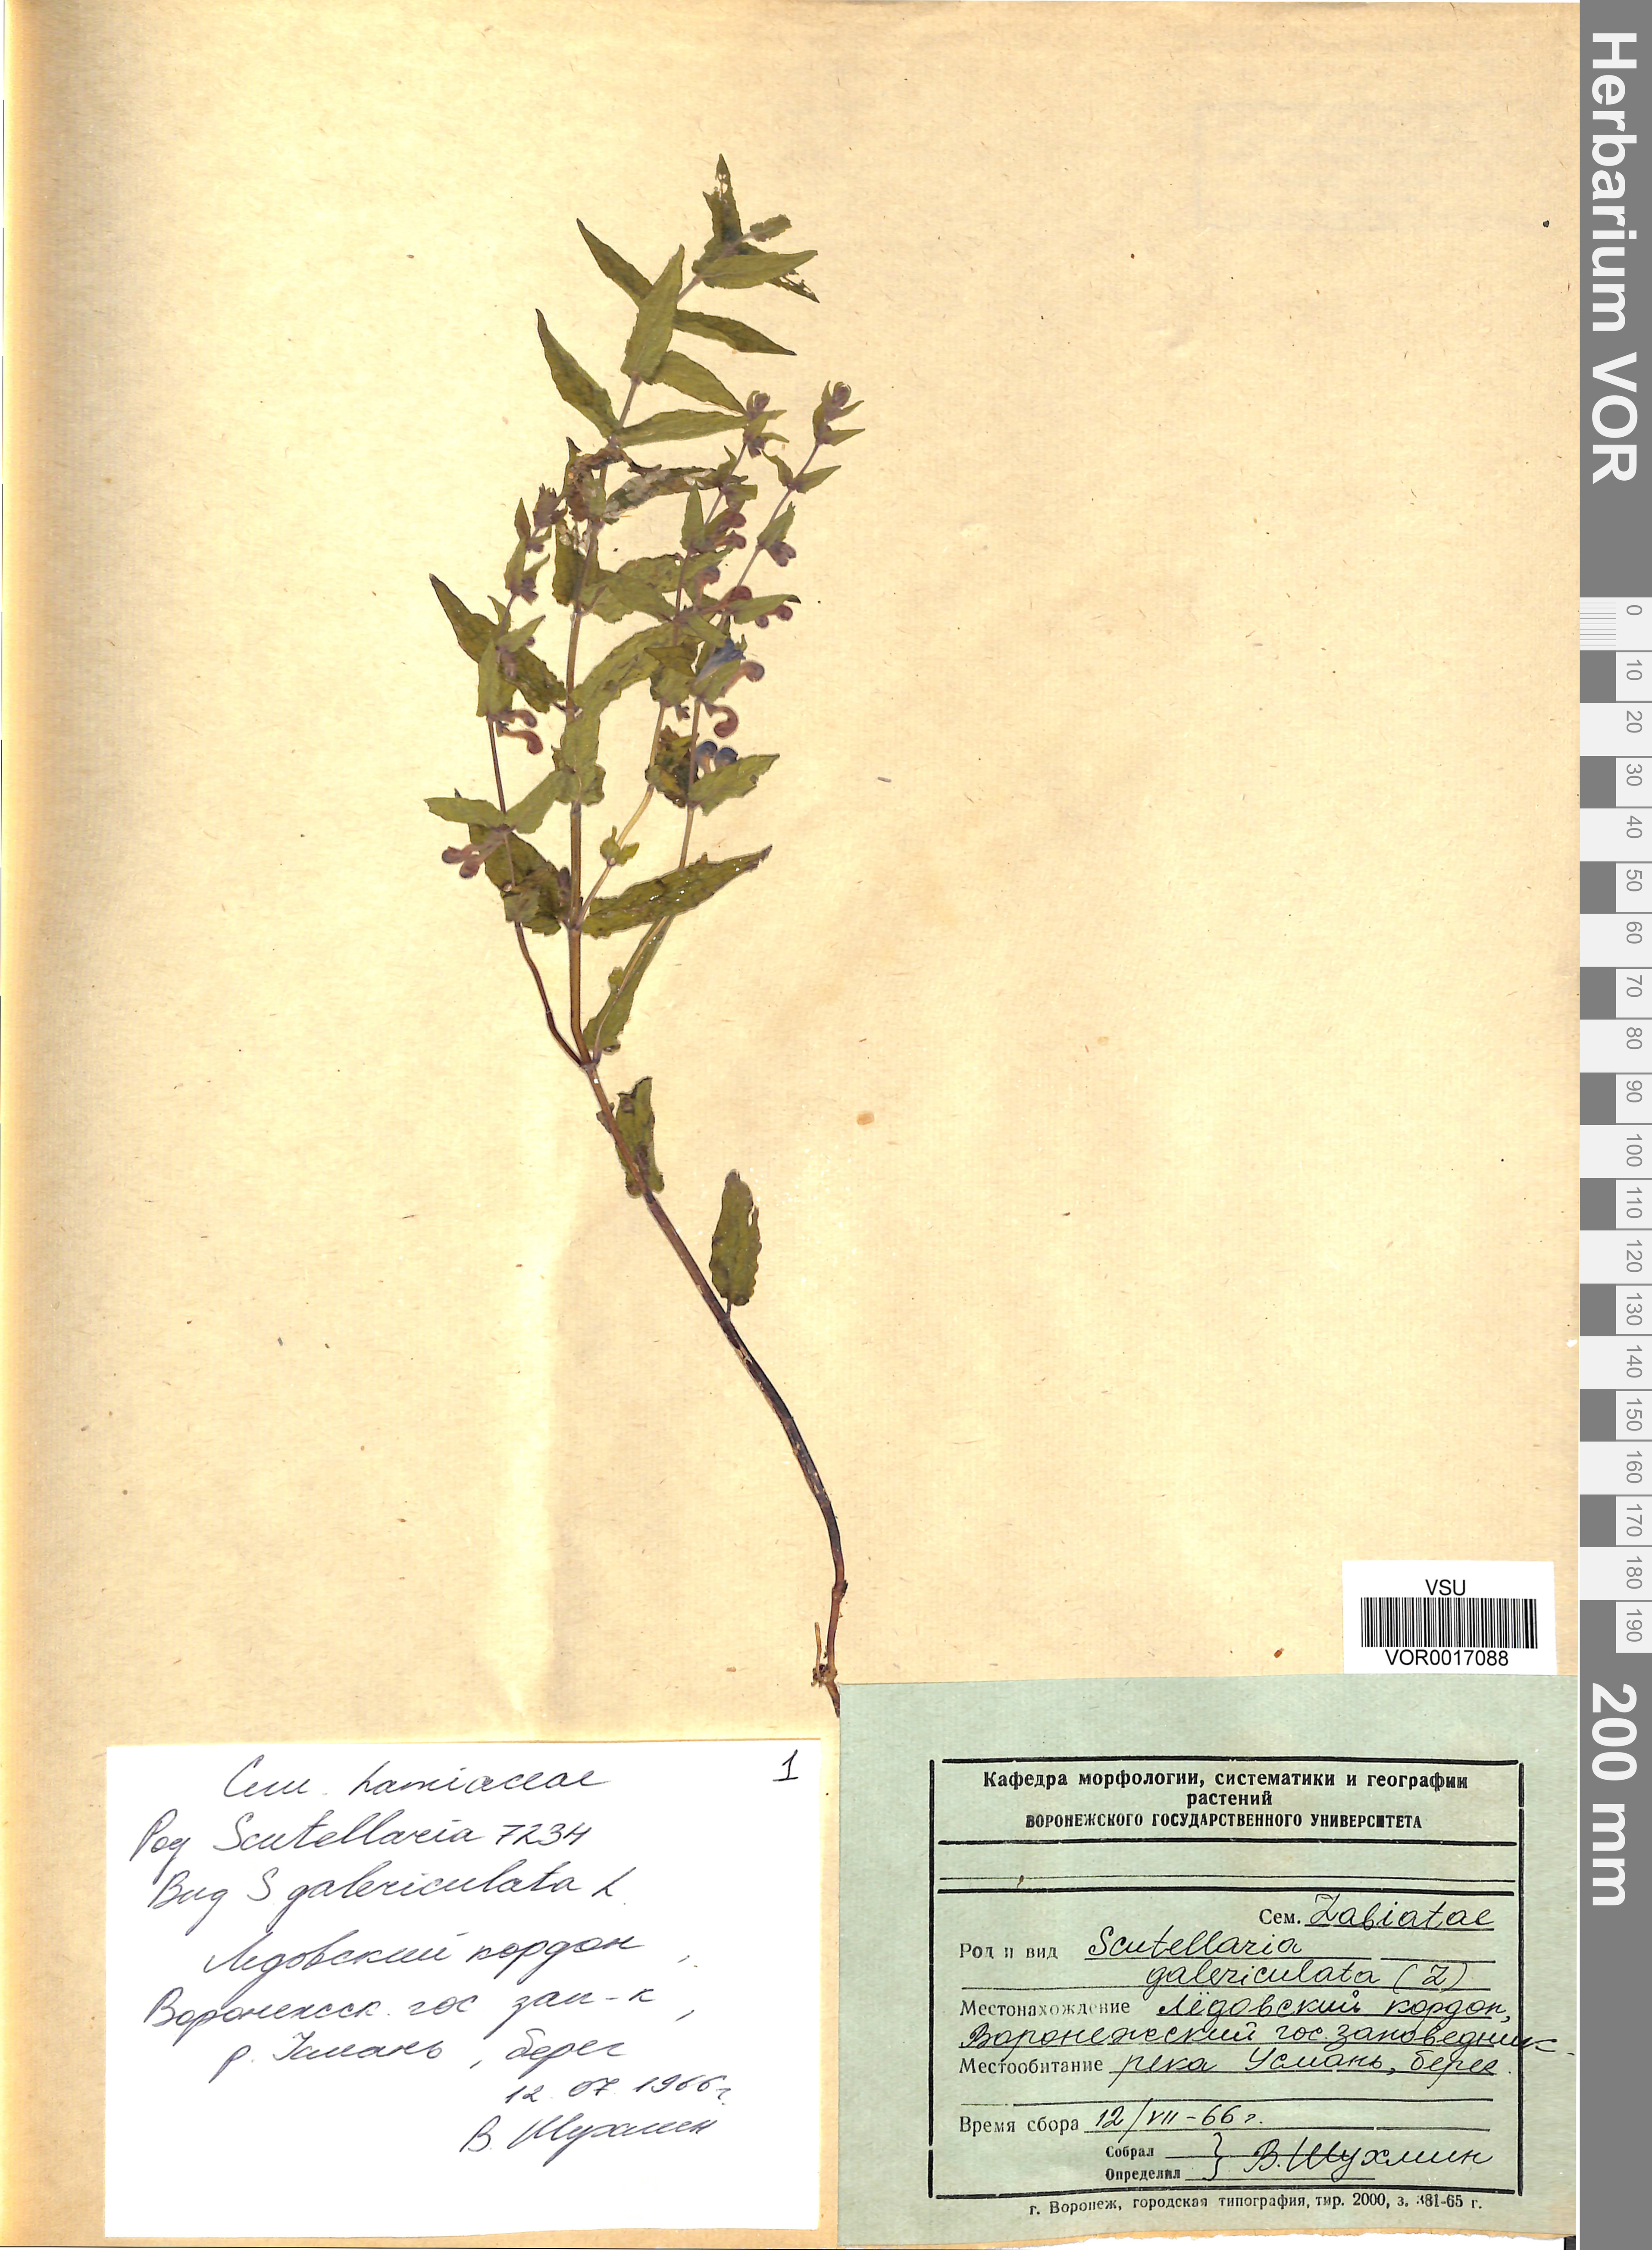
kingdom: Plantae
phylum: Tracheophyta
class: Magnoliopsida
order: Lamiales
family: Lamiaceae
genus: Scutellaria
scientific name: Scutellaria galericulata
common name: Skullcap
